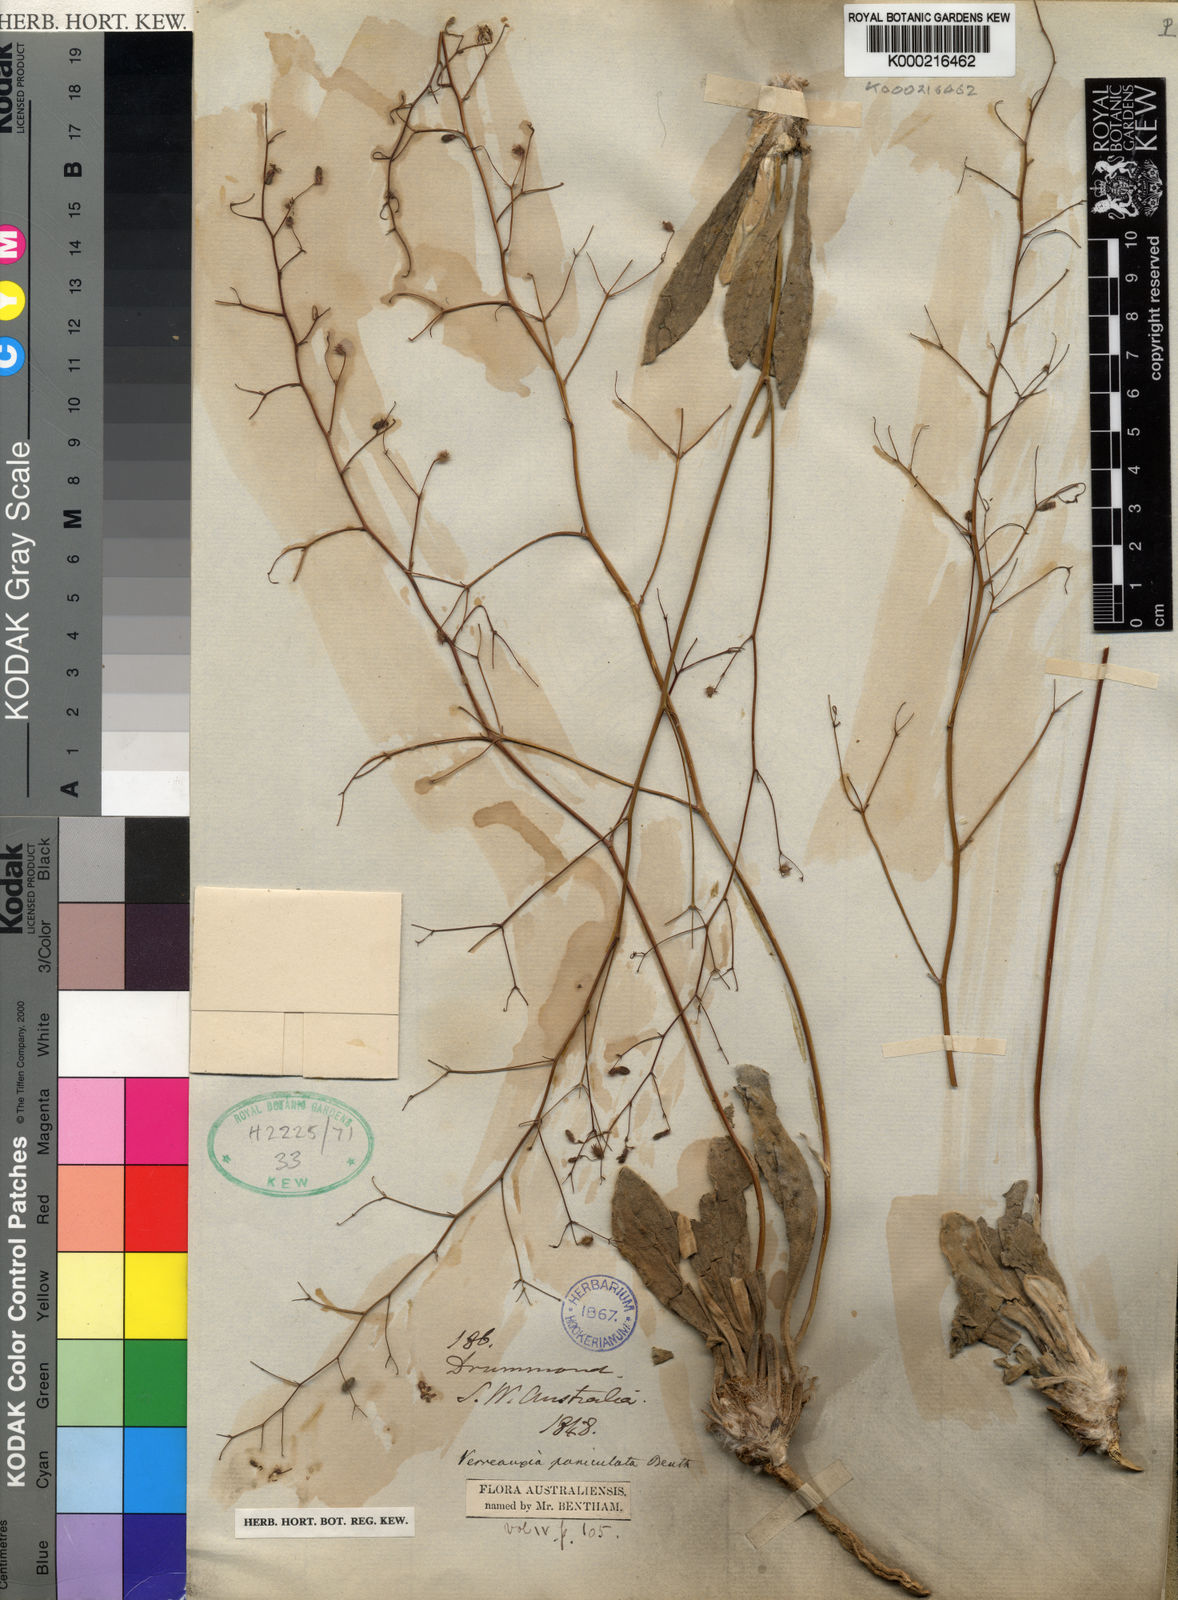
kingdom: Plantae
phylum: Tracheophyta
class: Magnoliopsida
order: Asterales
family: Goodeniaceae
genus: Goodenia
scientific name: Goodenia verreauxii
